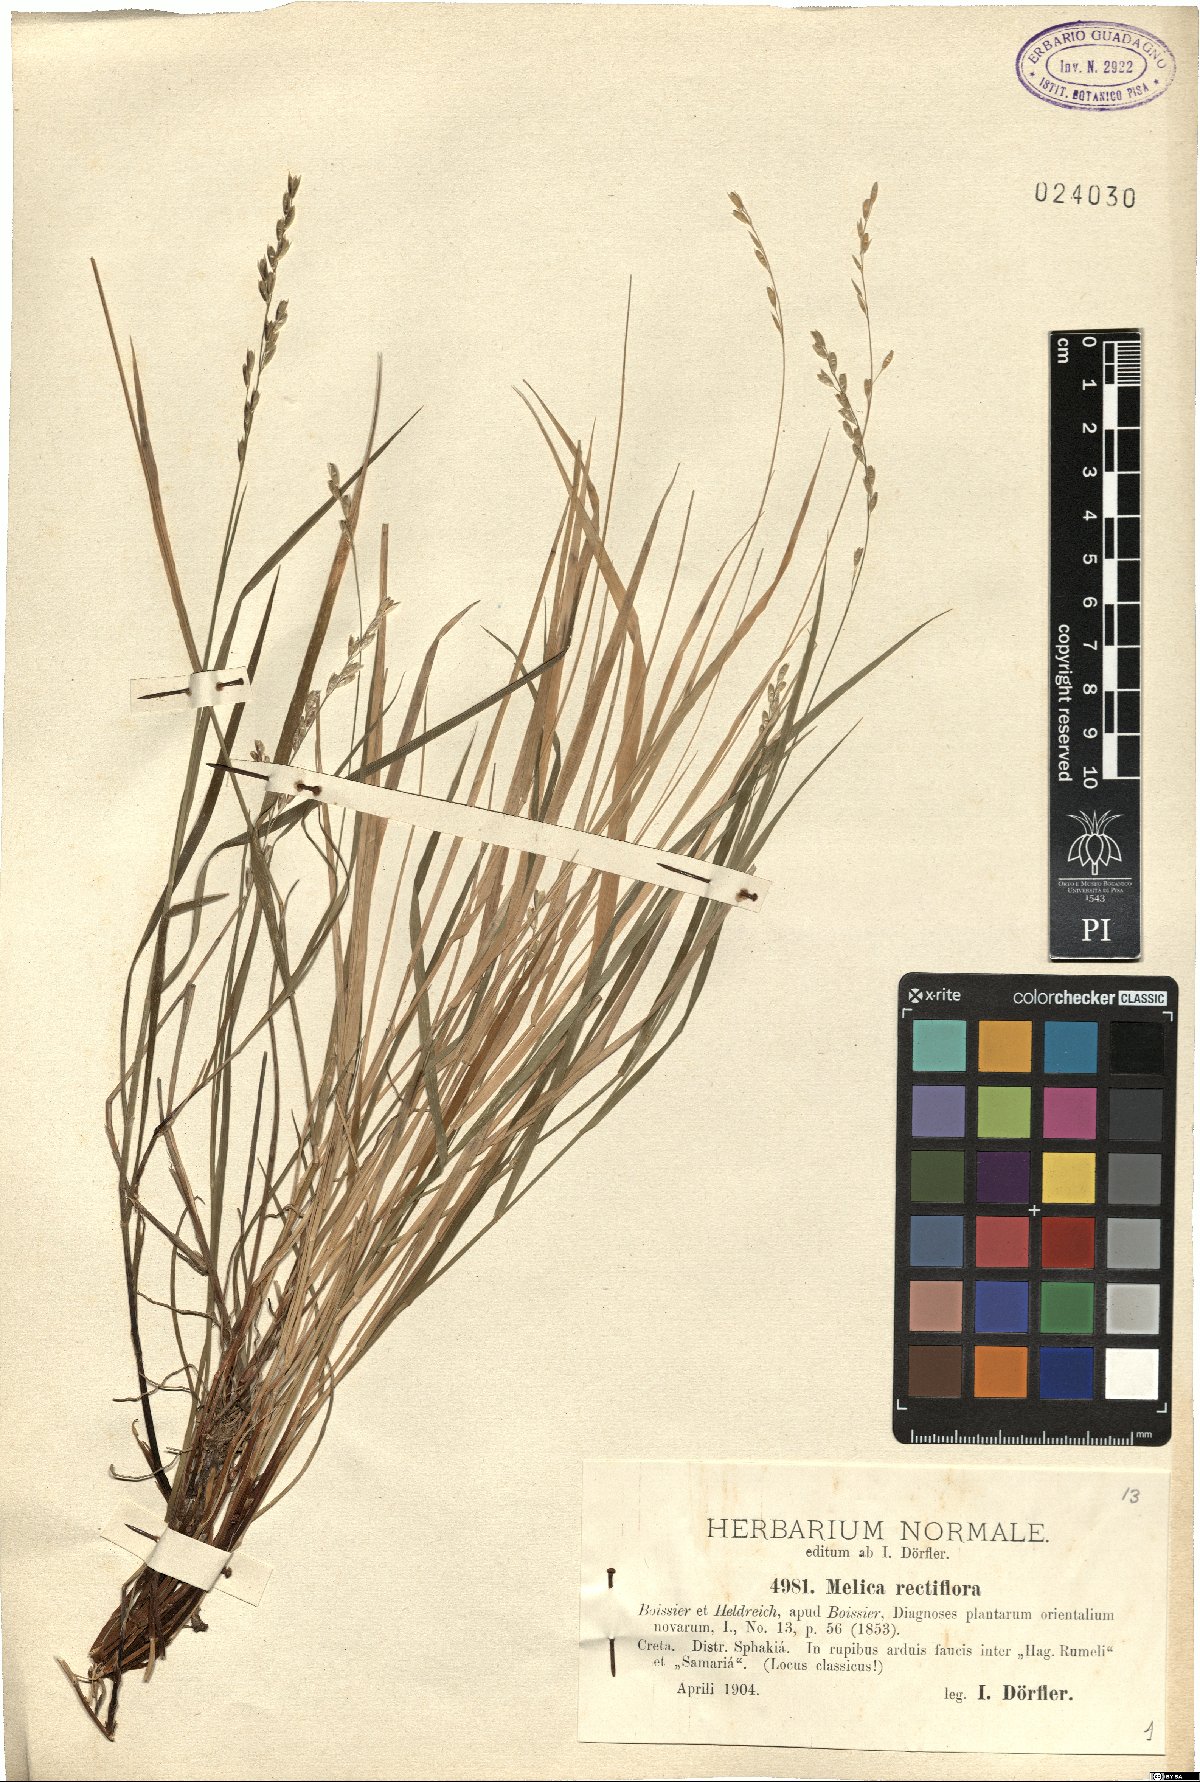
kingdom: Plantae
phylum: Tracheophyta
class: Liliopsida
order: Poales
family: Poaceae
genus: Melica
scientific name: Melica rectiflora
